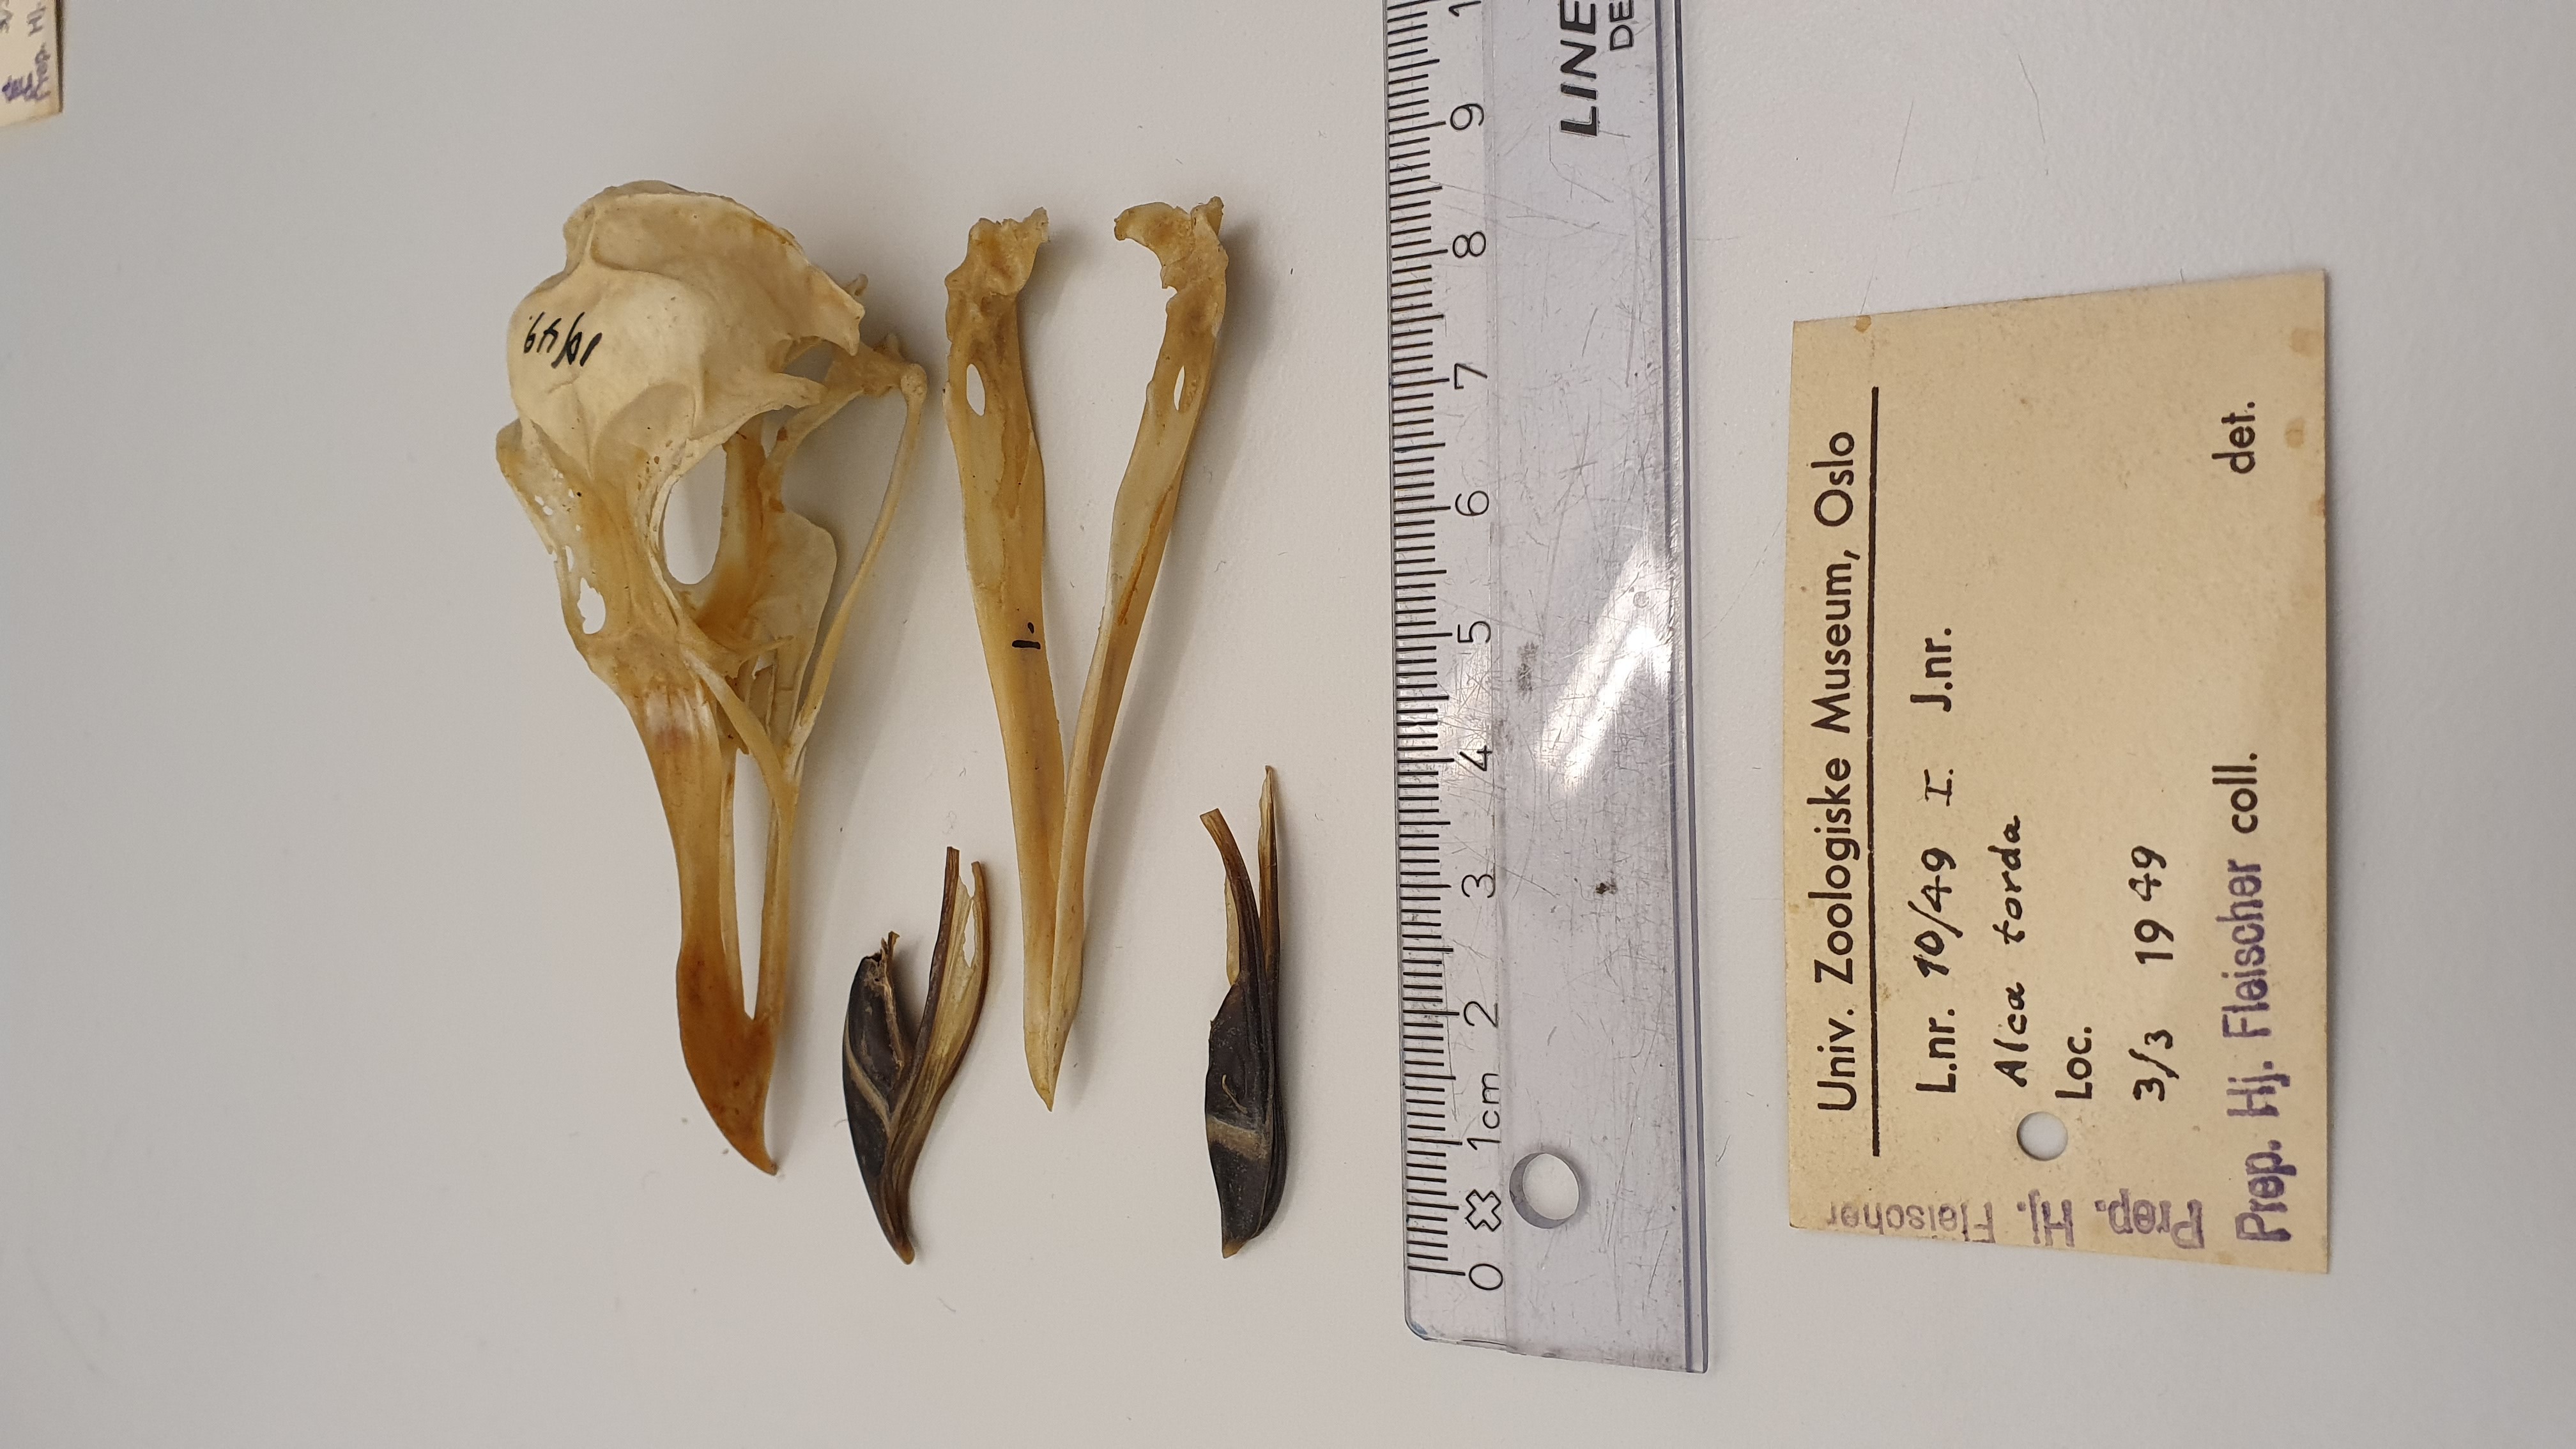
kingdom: Animalia
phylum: Chordata
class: Aves
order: Charadriiformes
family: Alcidae
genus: Alca
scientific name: Alca torda
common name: Razorbill
